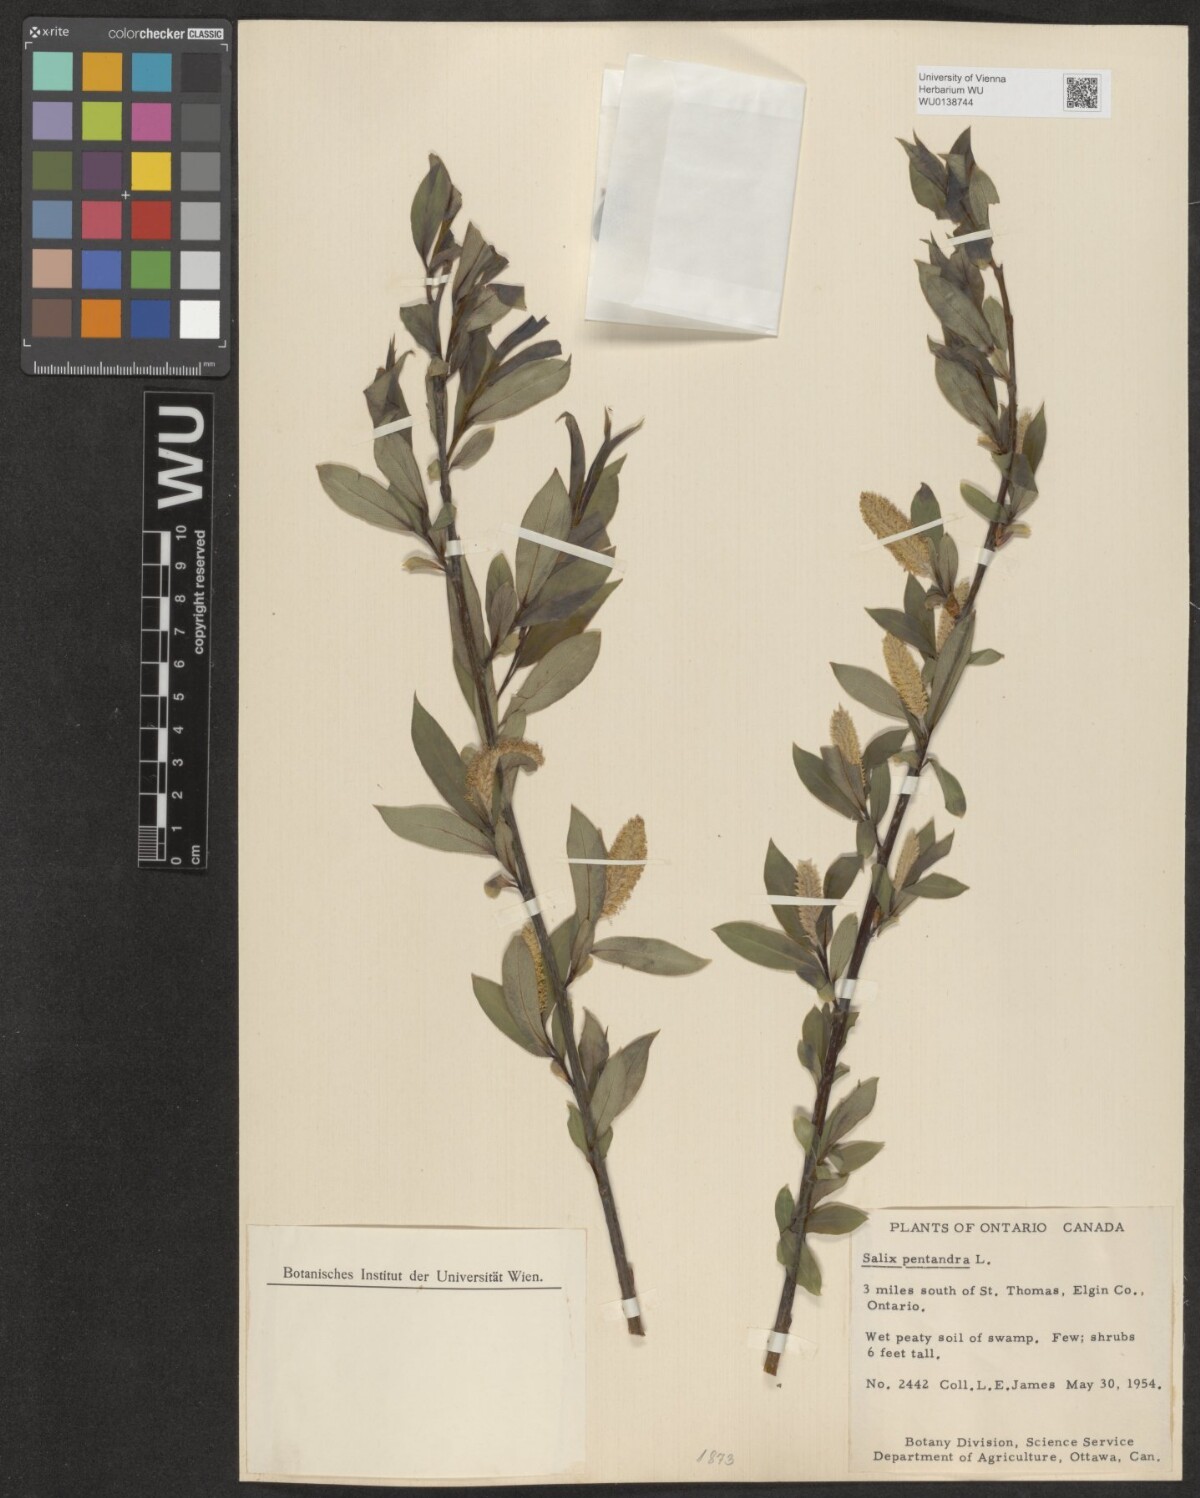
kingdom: Plantae
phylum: Tracheophyta
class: Magnoliopsida
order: Malpighiales
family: Salicaceae
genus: Salix
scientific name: Salix pentandra
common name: Bay willow
